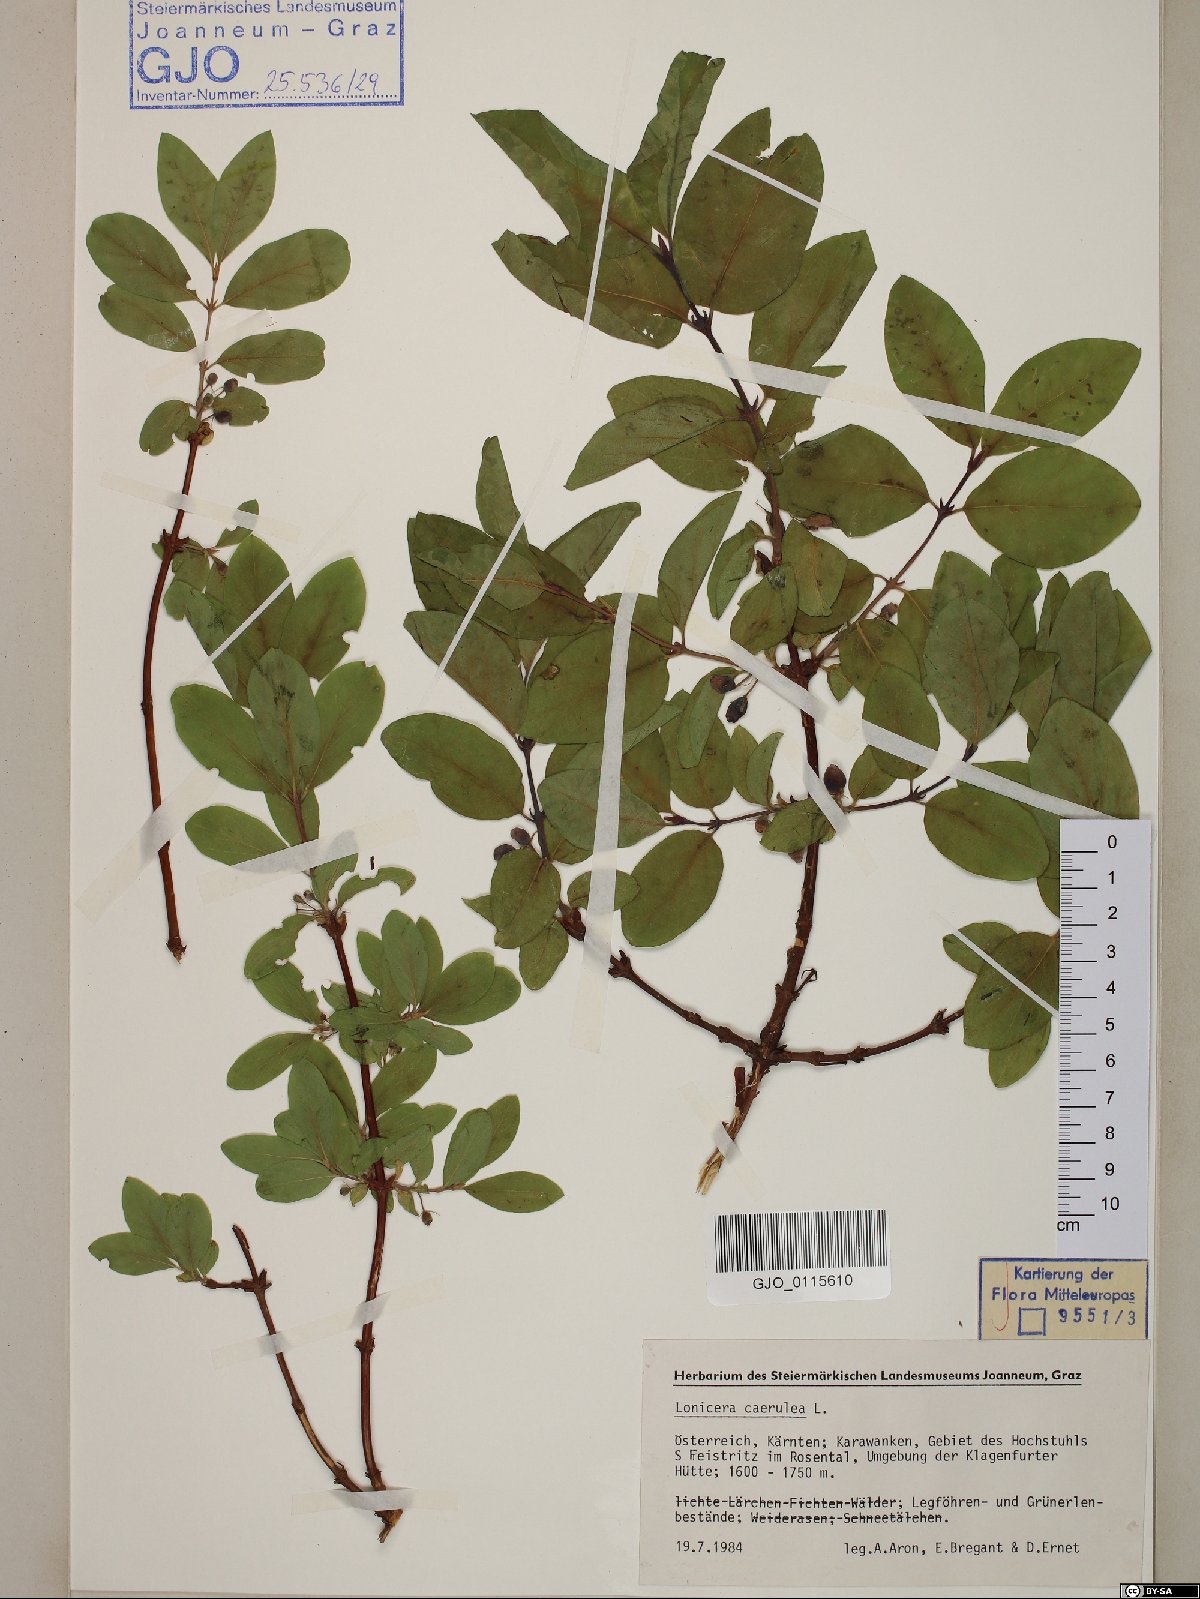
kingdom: Plantae
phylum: Tracheophyta
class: Magnoliopsida
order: Dipsacales
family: Caprifoliaceae
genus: Lonicera
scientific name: Lonicera caerulea
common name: Blue honeysuckle
